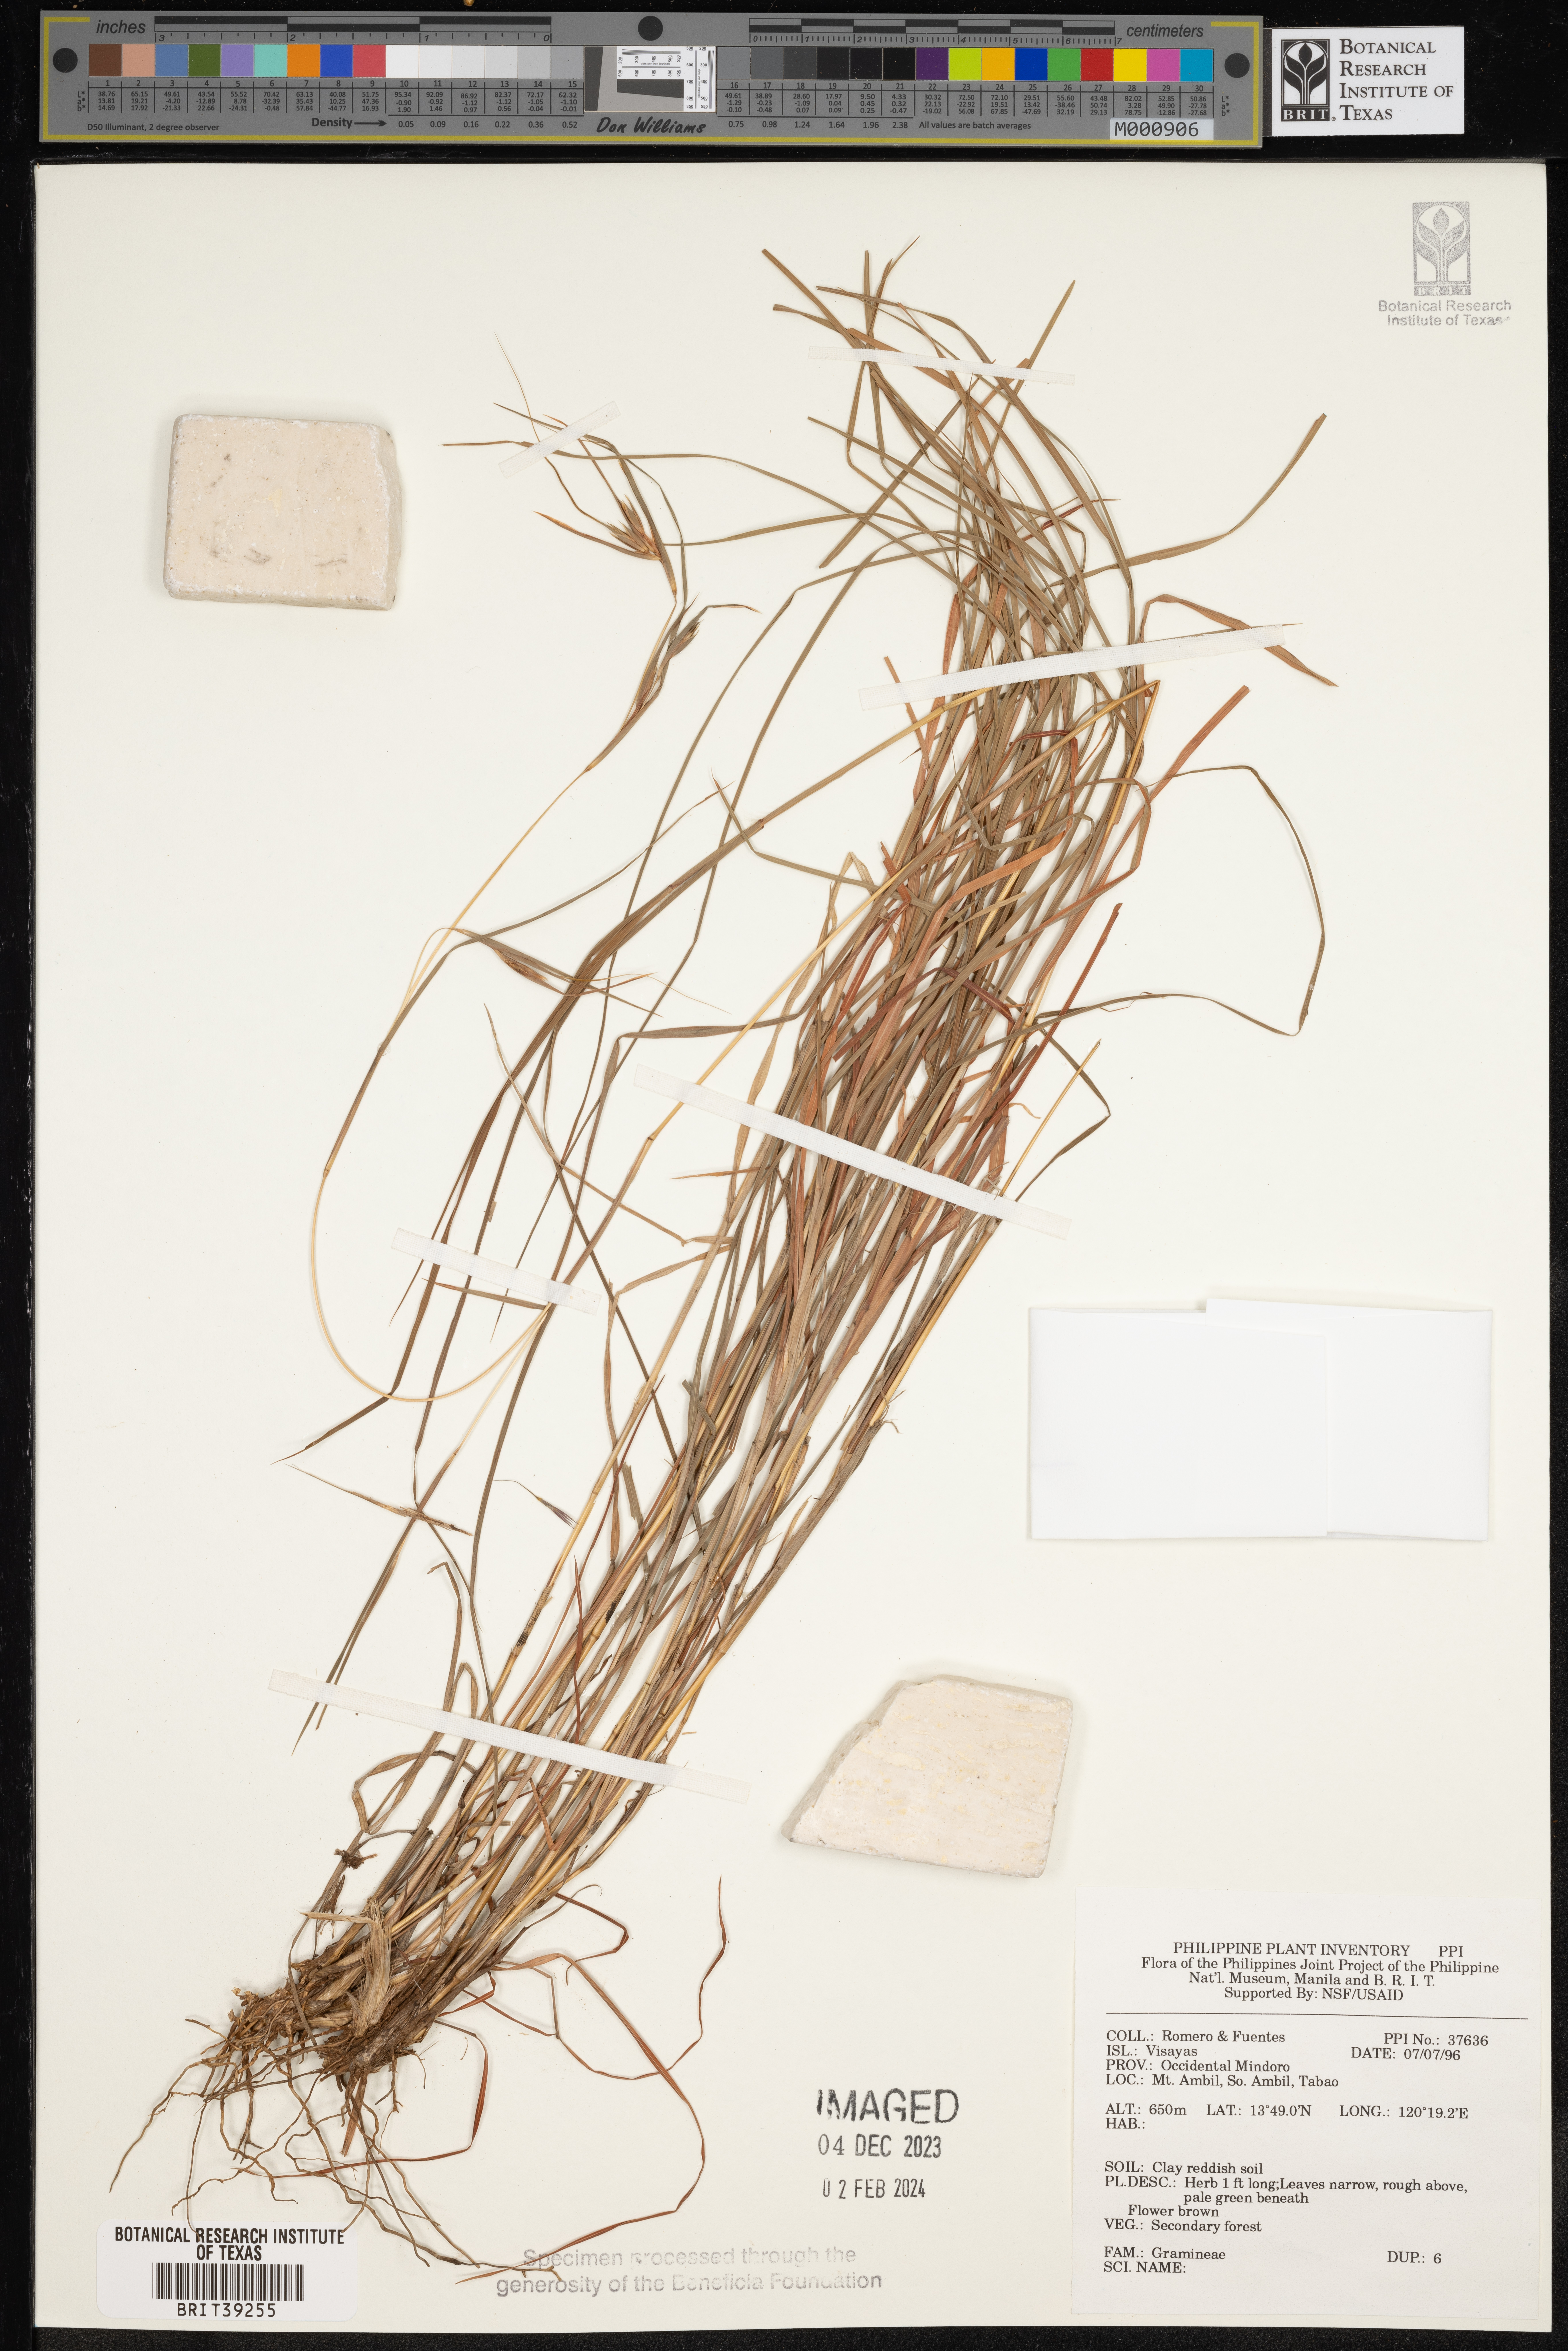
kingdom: Plantae
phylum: Tracheophyta
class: Liliopsida
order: Poales
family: Poaceae
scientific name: Poaceae
